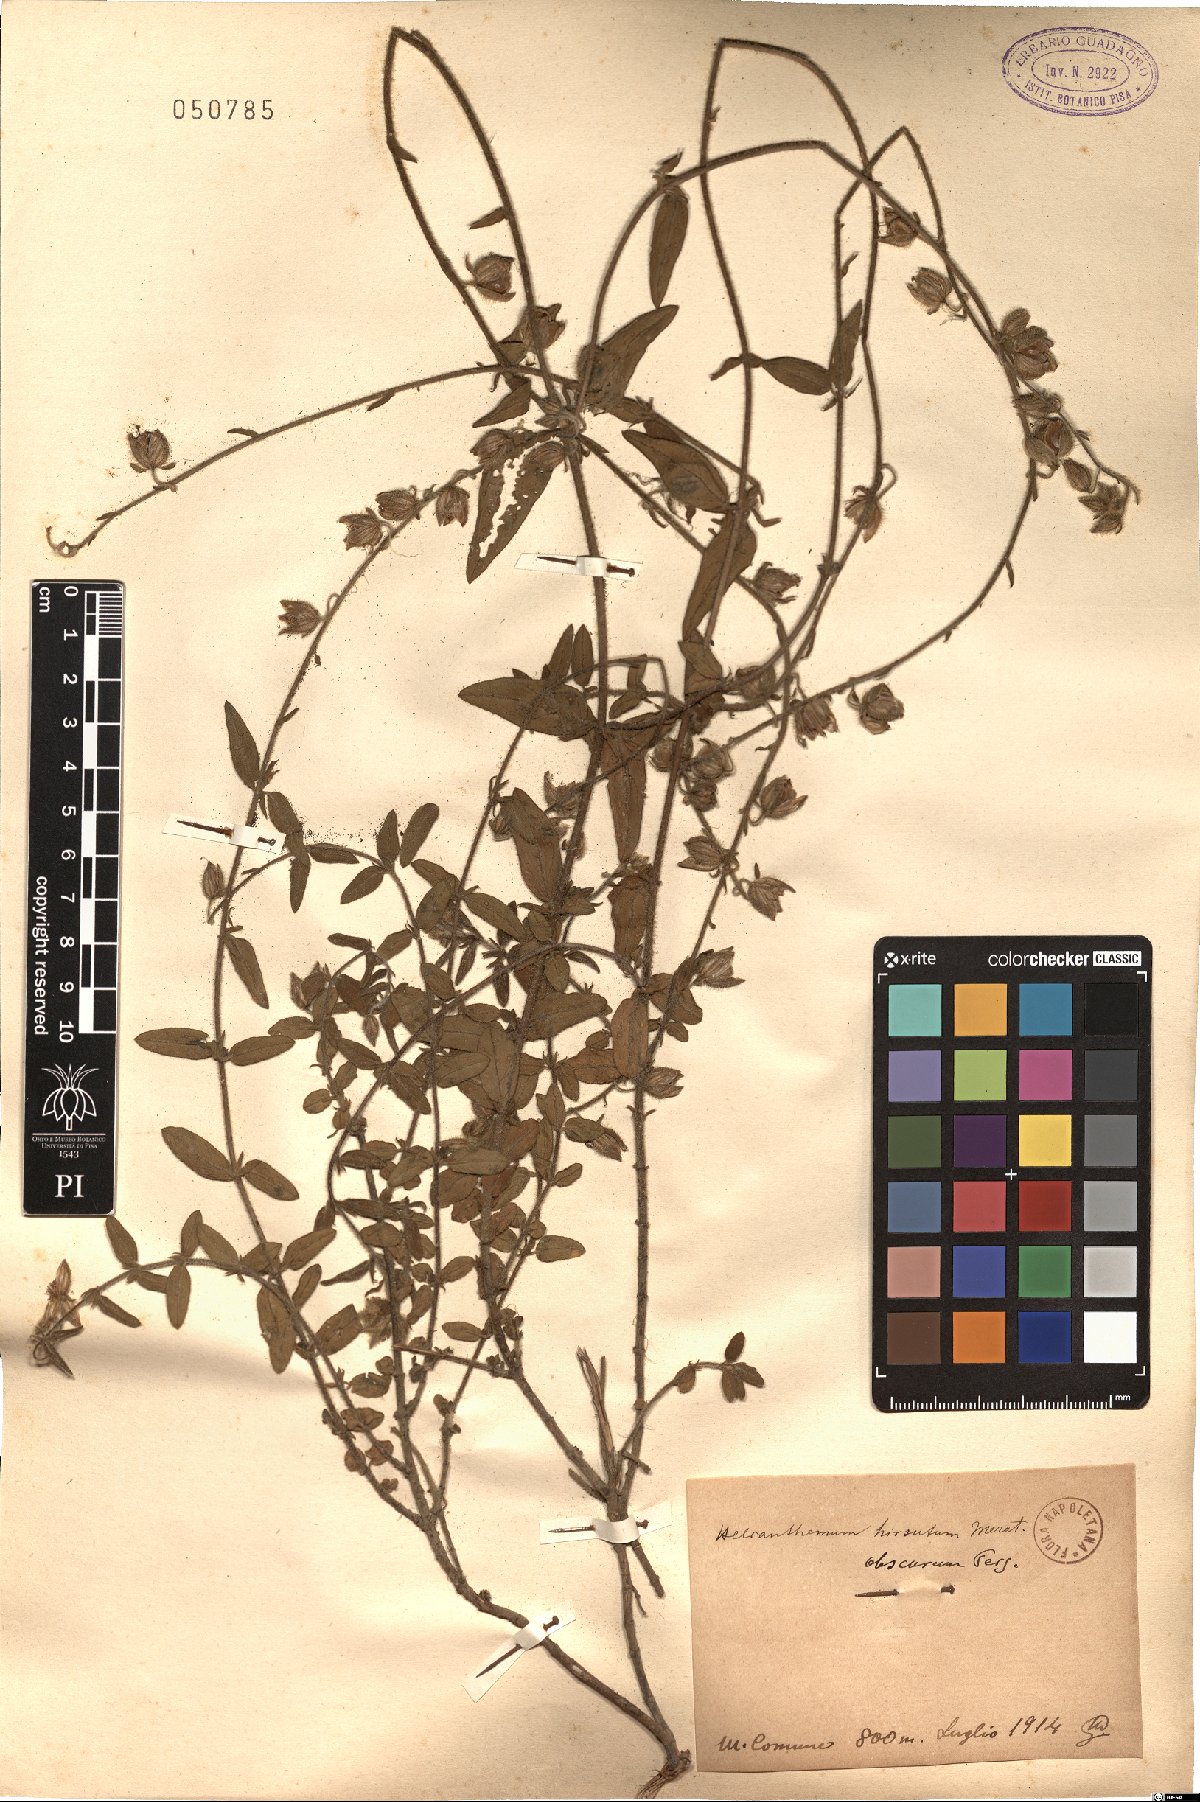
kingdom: Plantae
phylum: Tracheophyta
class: Magnoliopsida
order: Malvales
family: Cistaceae
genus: Helianthemum
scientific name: Helianthemum
